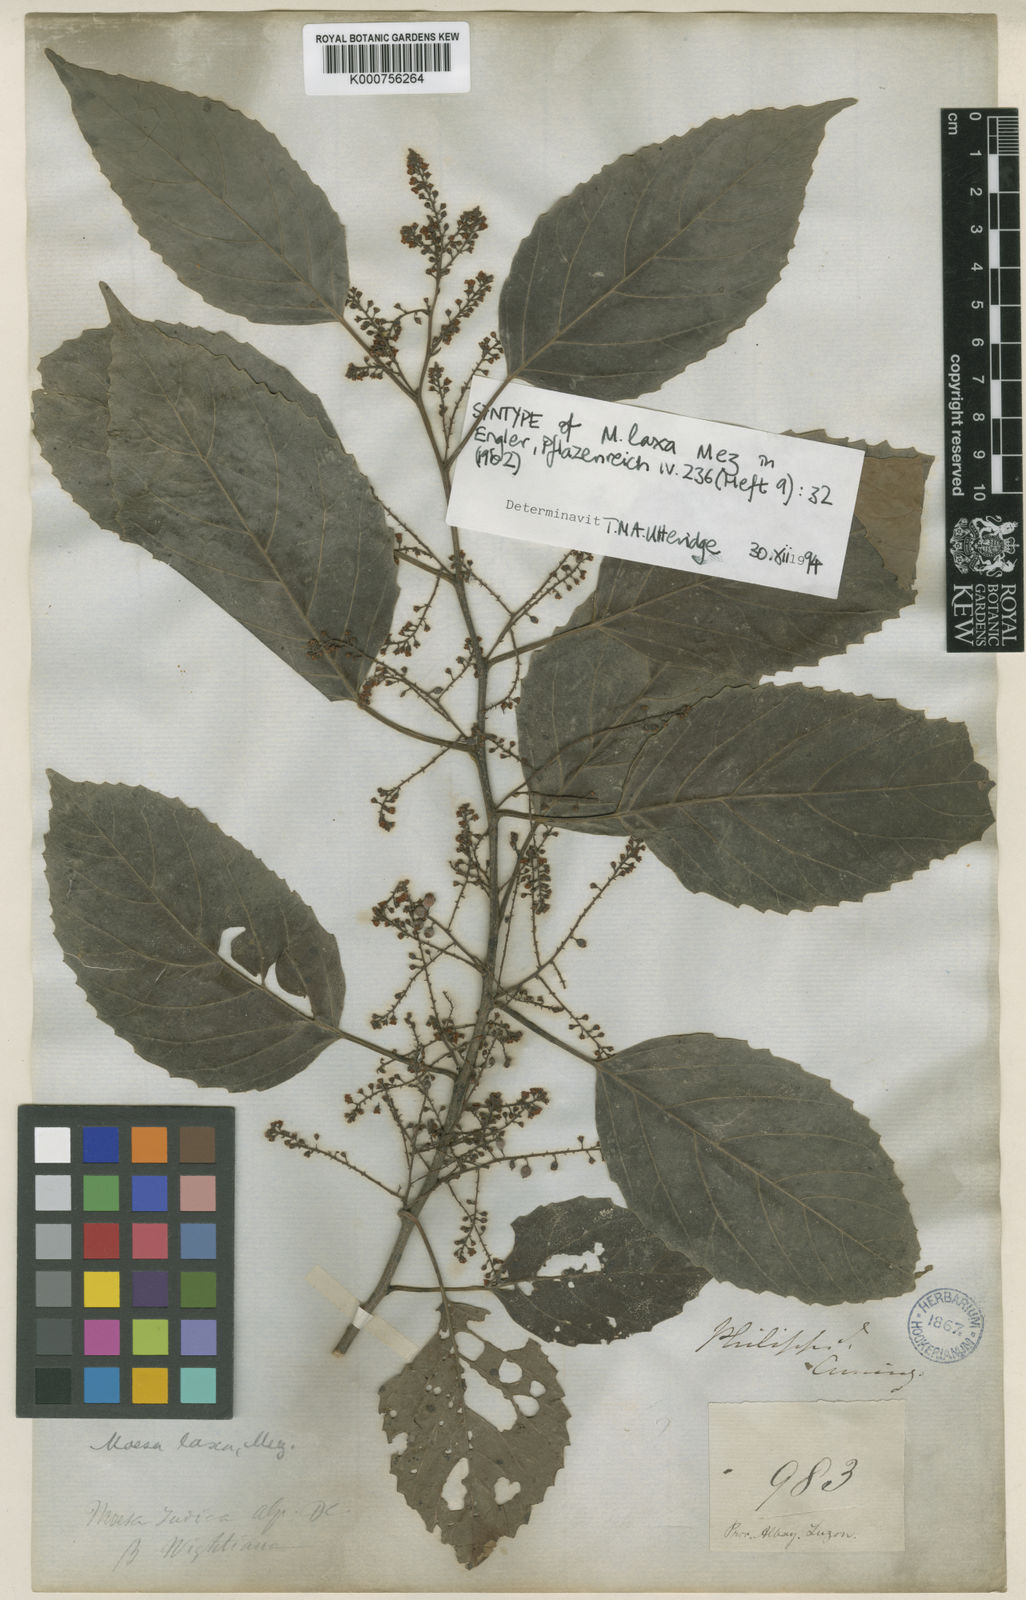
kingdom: Plantae
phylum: Tracheophyta
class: Magnoliopsida
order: Ericales
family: Primulaceae
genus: Maesa
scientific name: Maesa indica
